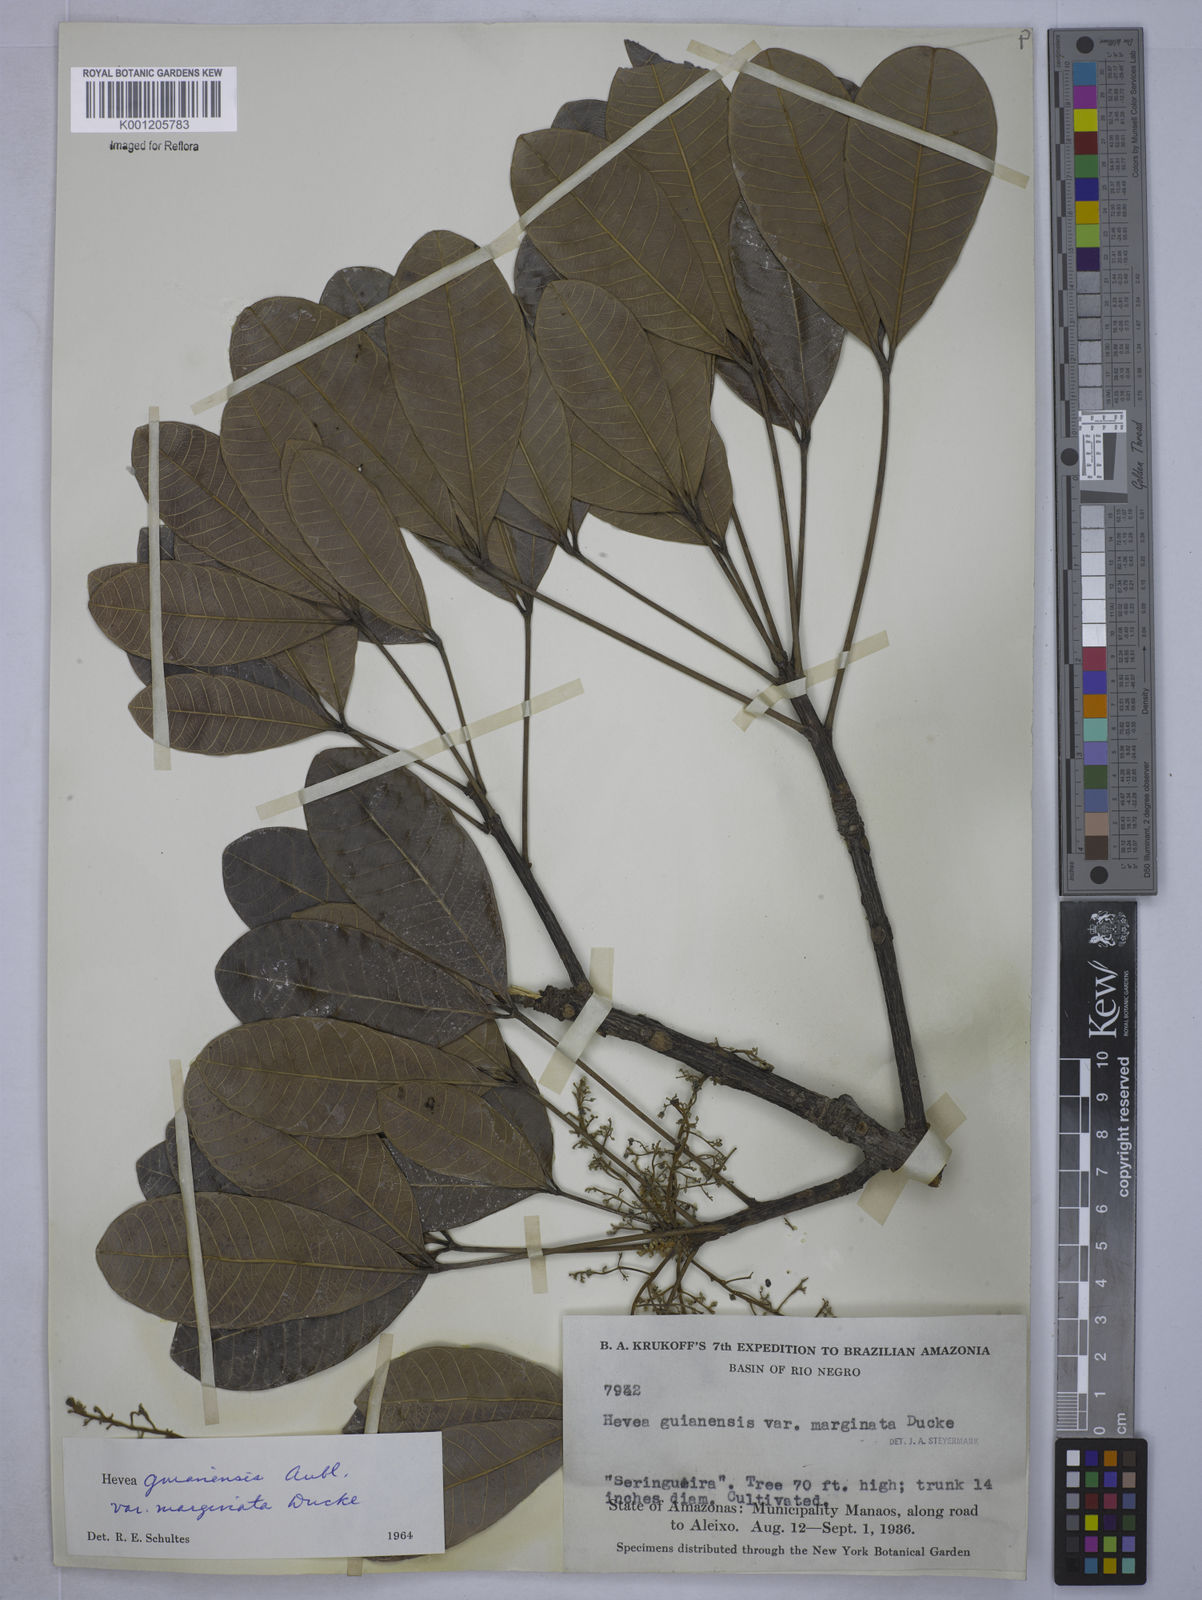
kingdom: Plantae
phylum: Tracheophyta
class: Magnoliopsida
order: Malpighiales
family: Euphorbiaceae
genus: Hevea
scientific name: Hevea guianensis
